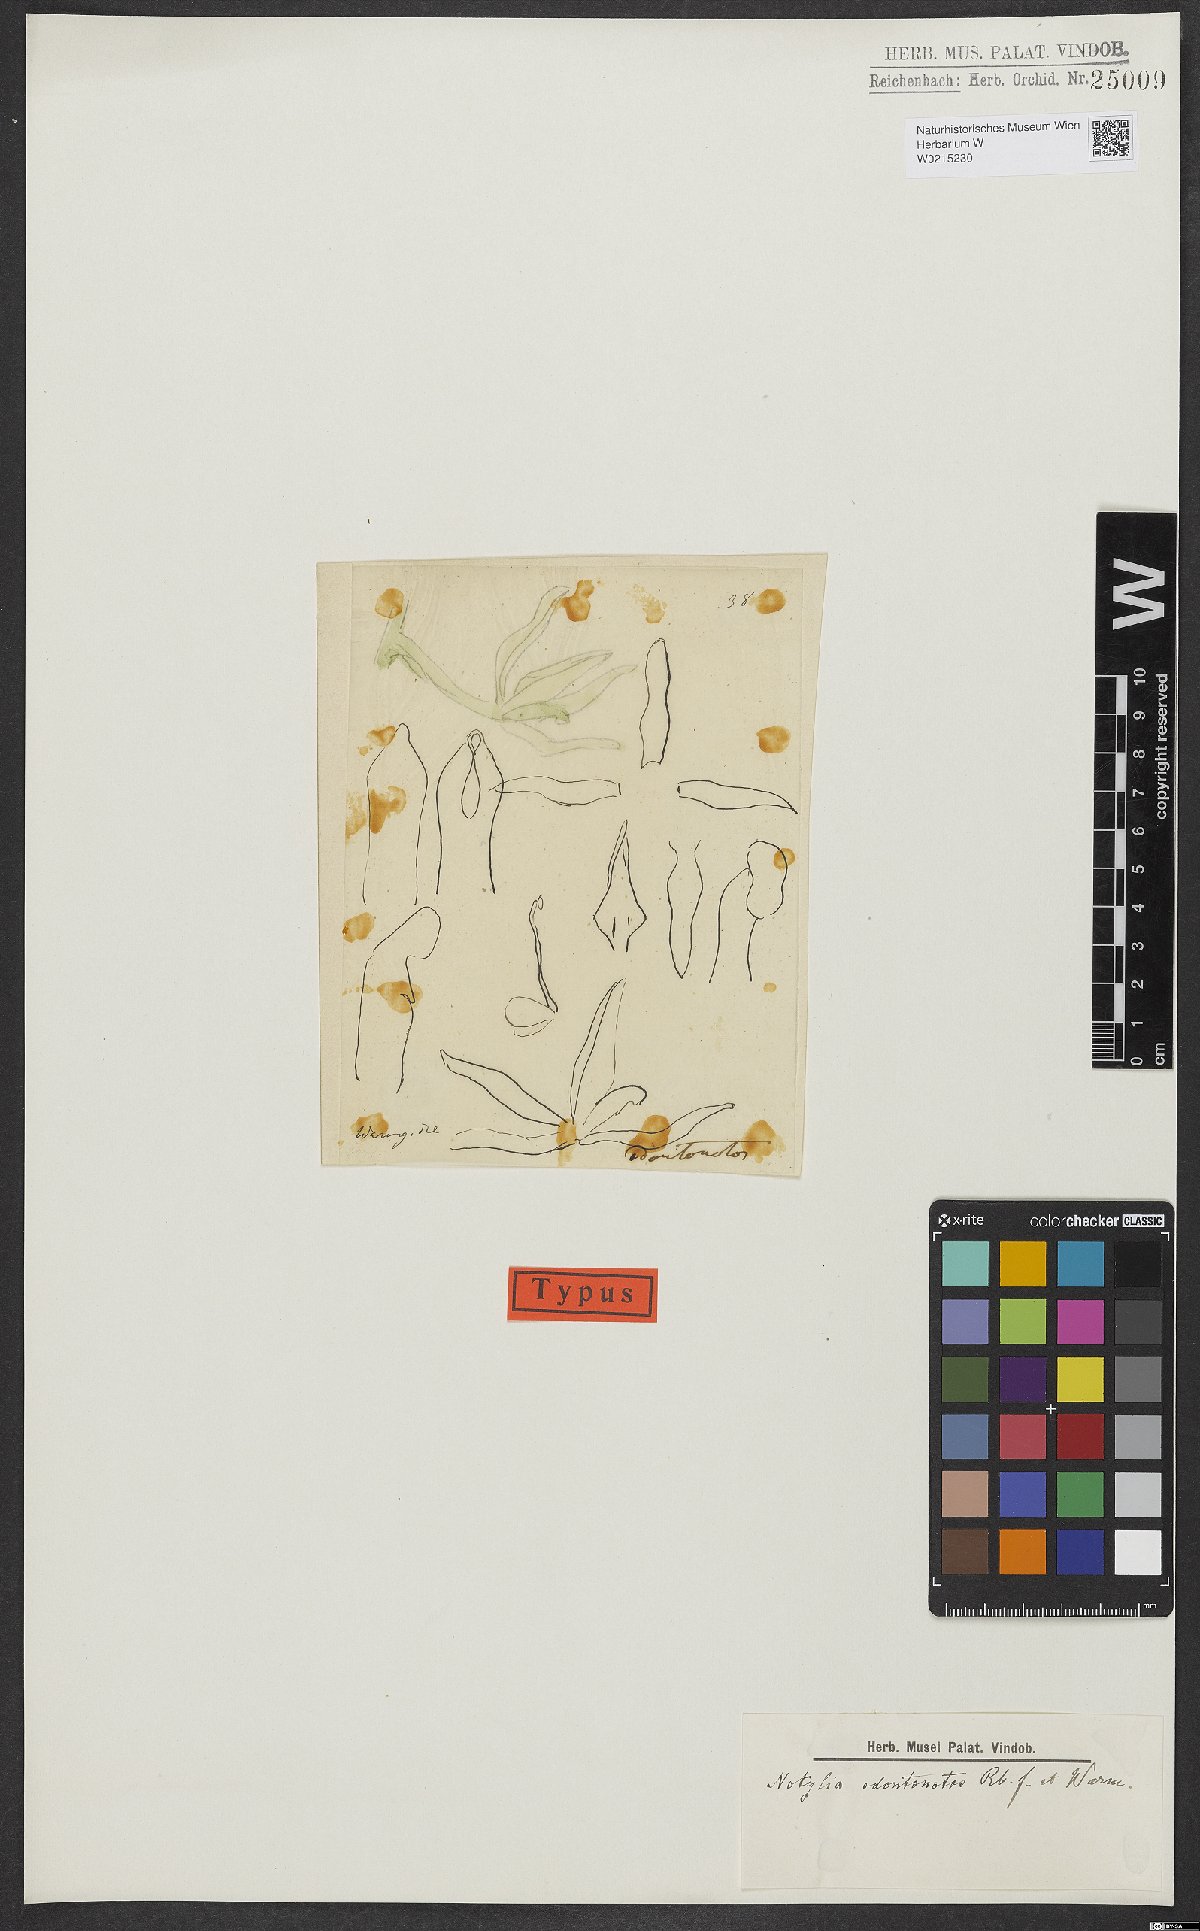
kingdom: Plantae
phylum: Tracheophyta
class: Liliopsida
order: Asparagales
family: Orchidaceae
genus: Notylia
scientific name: Notylia odontonotos
